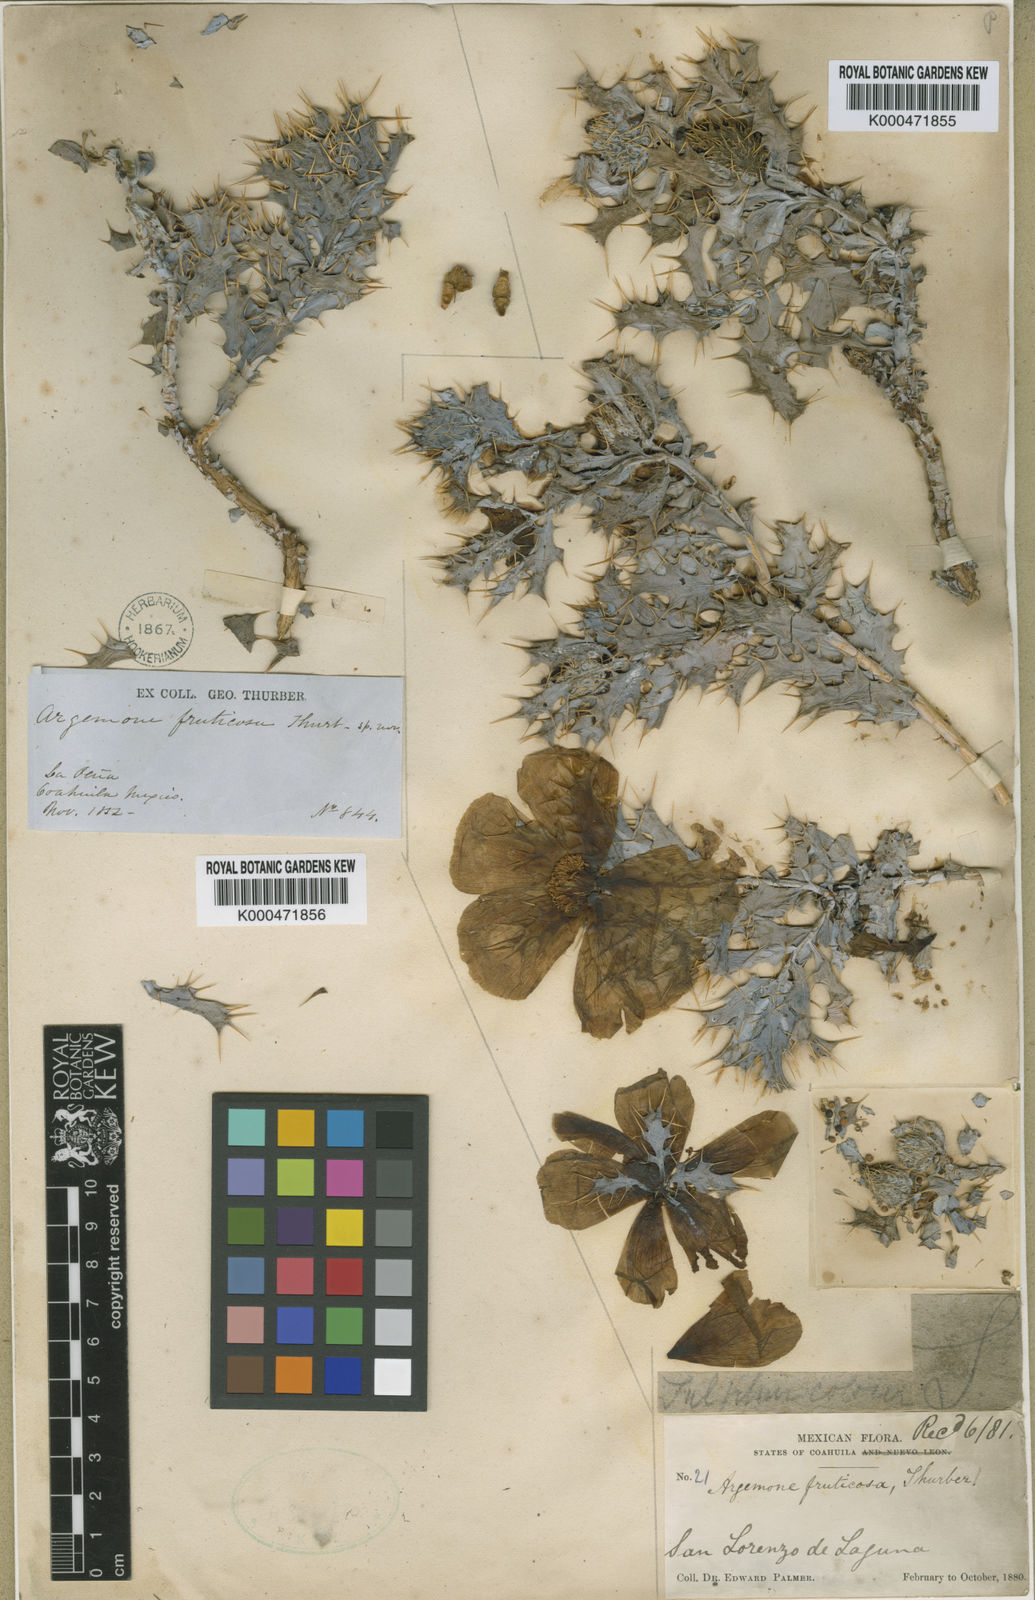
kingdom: Plantae
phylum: Tracheophyta
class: Magnoliopsida
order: Ranunculales
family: Papaveraceae
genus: Argemone
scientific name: Argemone fruticosa
